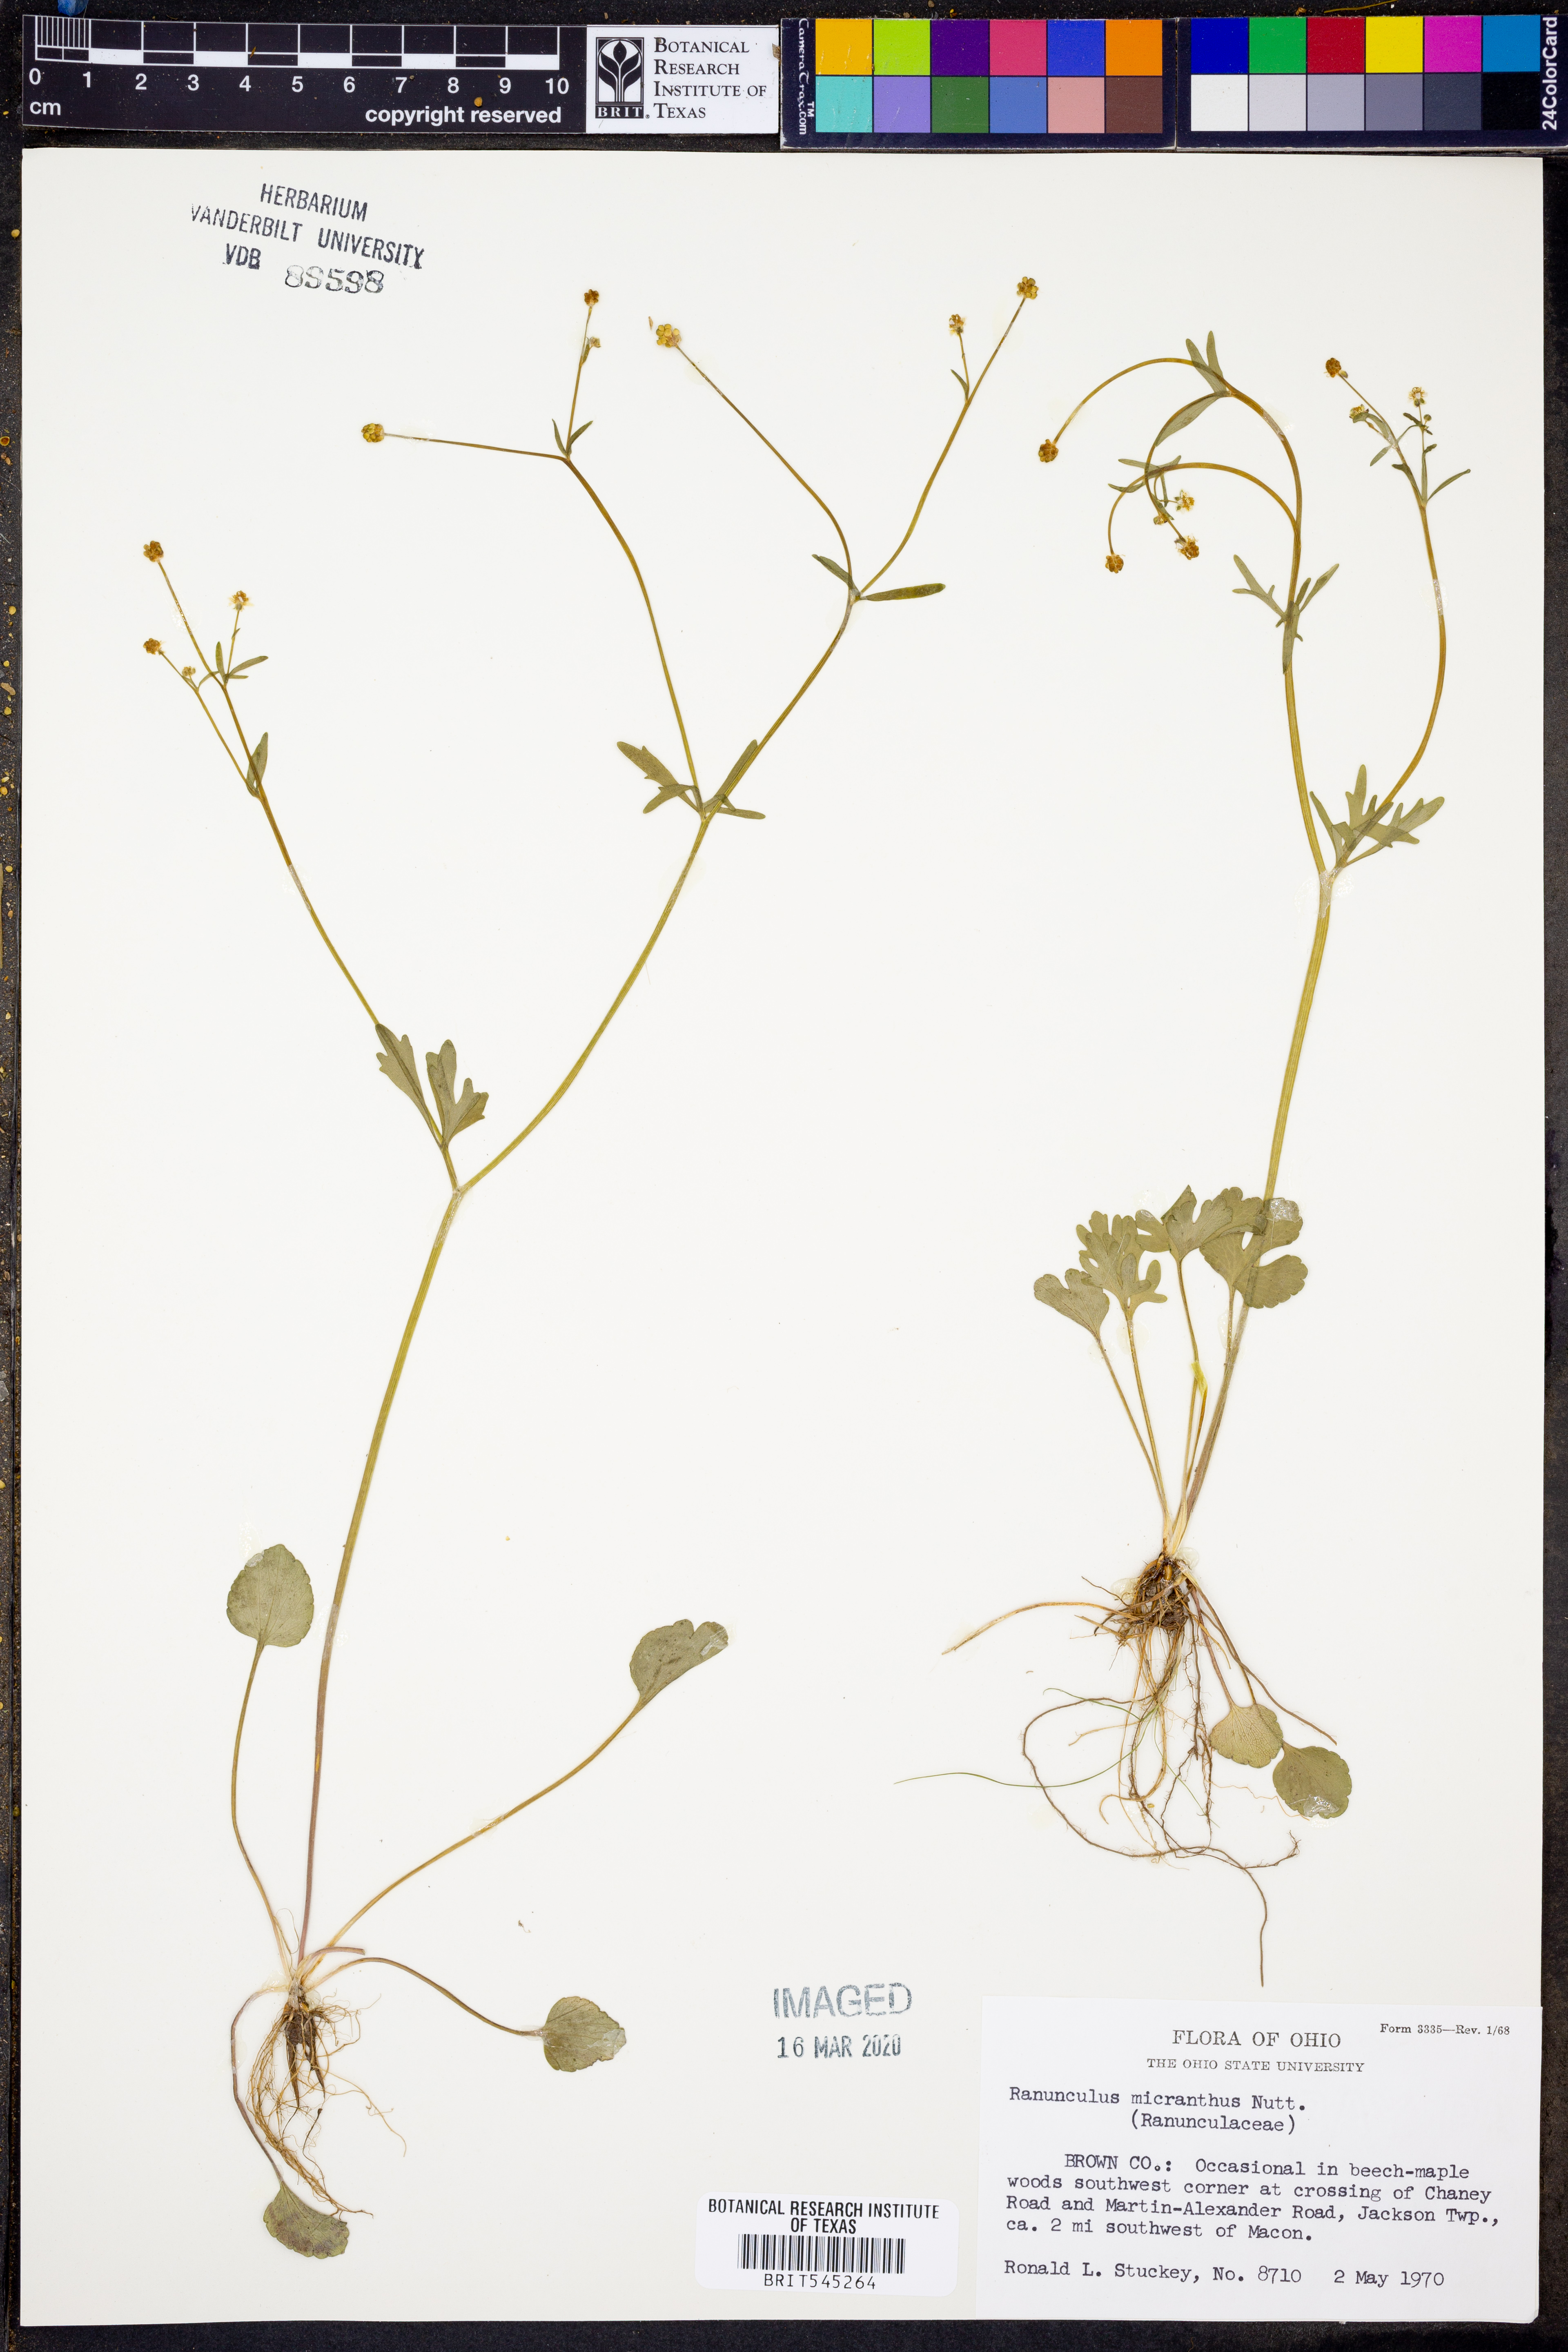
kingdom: Plantae
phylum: Tracheophyta
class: Magnoliopsida
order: Ranunculales
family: Ranunculaceae
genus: Ranunculus
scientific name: Ranunculus micranthus
